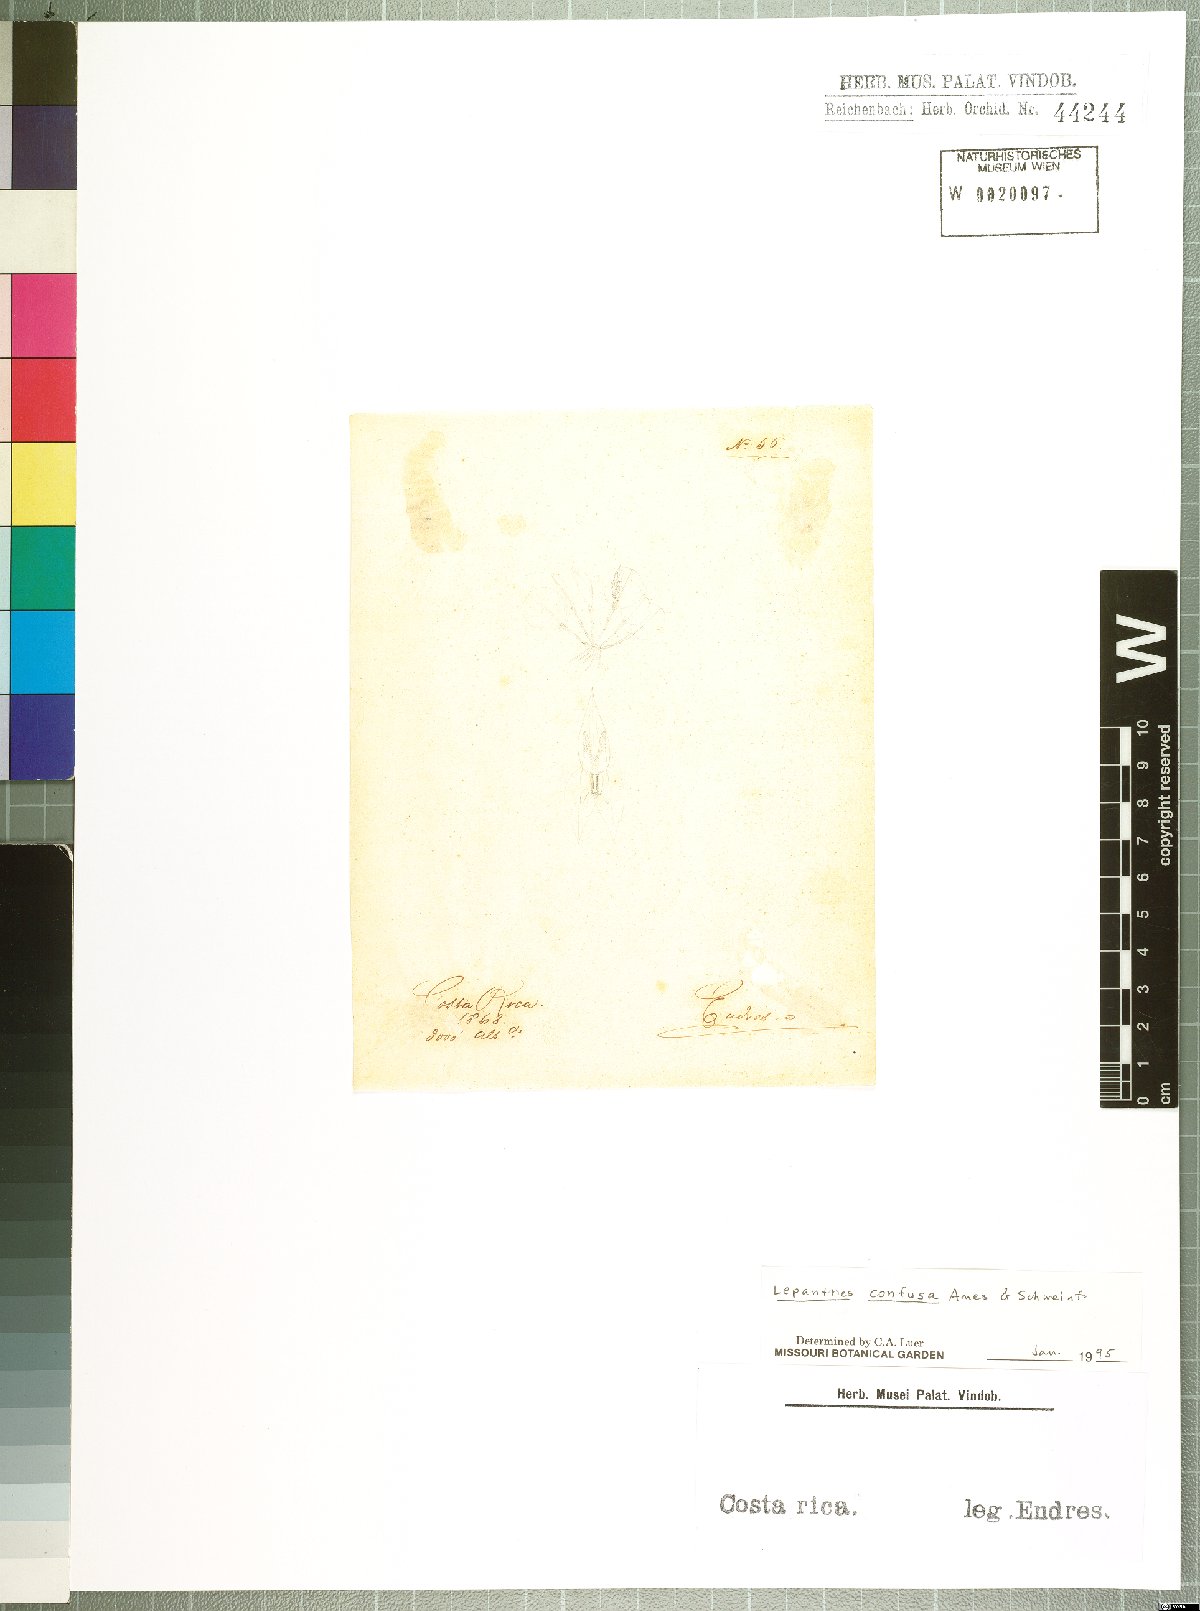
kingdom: Plantae
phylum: Tracheophyta
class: Liliopsida
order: Asparagales
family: Orchidaceae
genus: Lepanthes
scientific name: Lepanthes confusa
